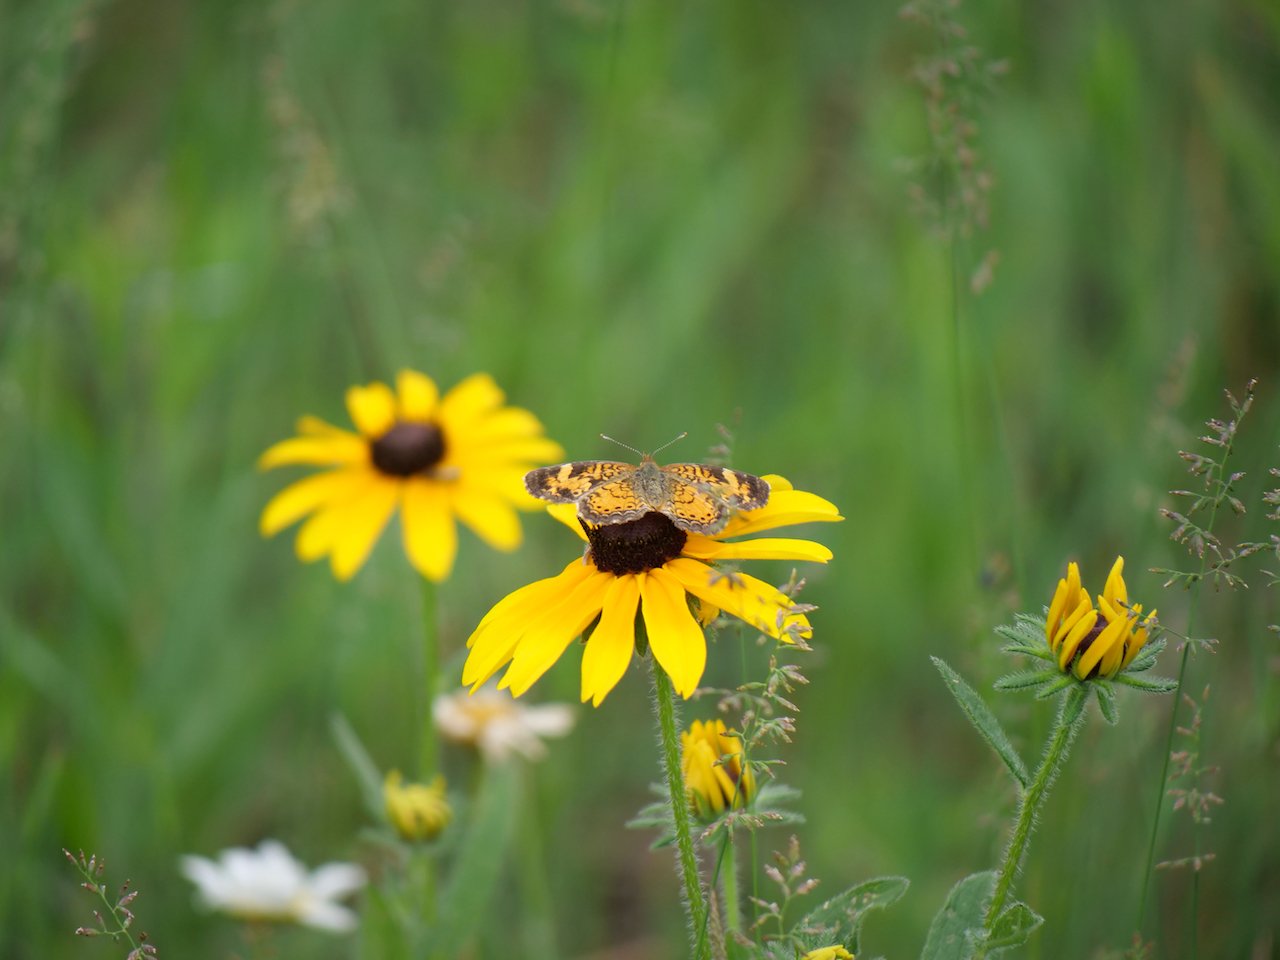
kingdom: Animalia
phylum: Arthropoda
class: Insecta
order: Lepidoptera
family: Nymphalidae
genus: Phyciodes
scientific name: Phyciodes tharos
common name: Northern Crescent
